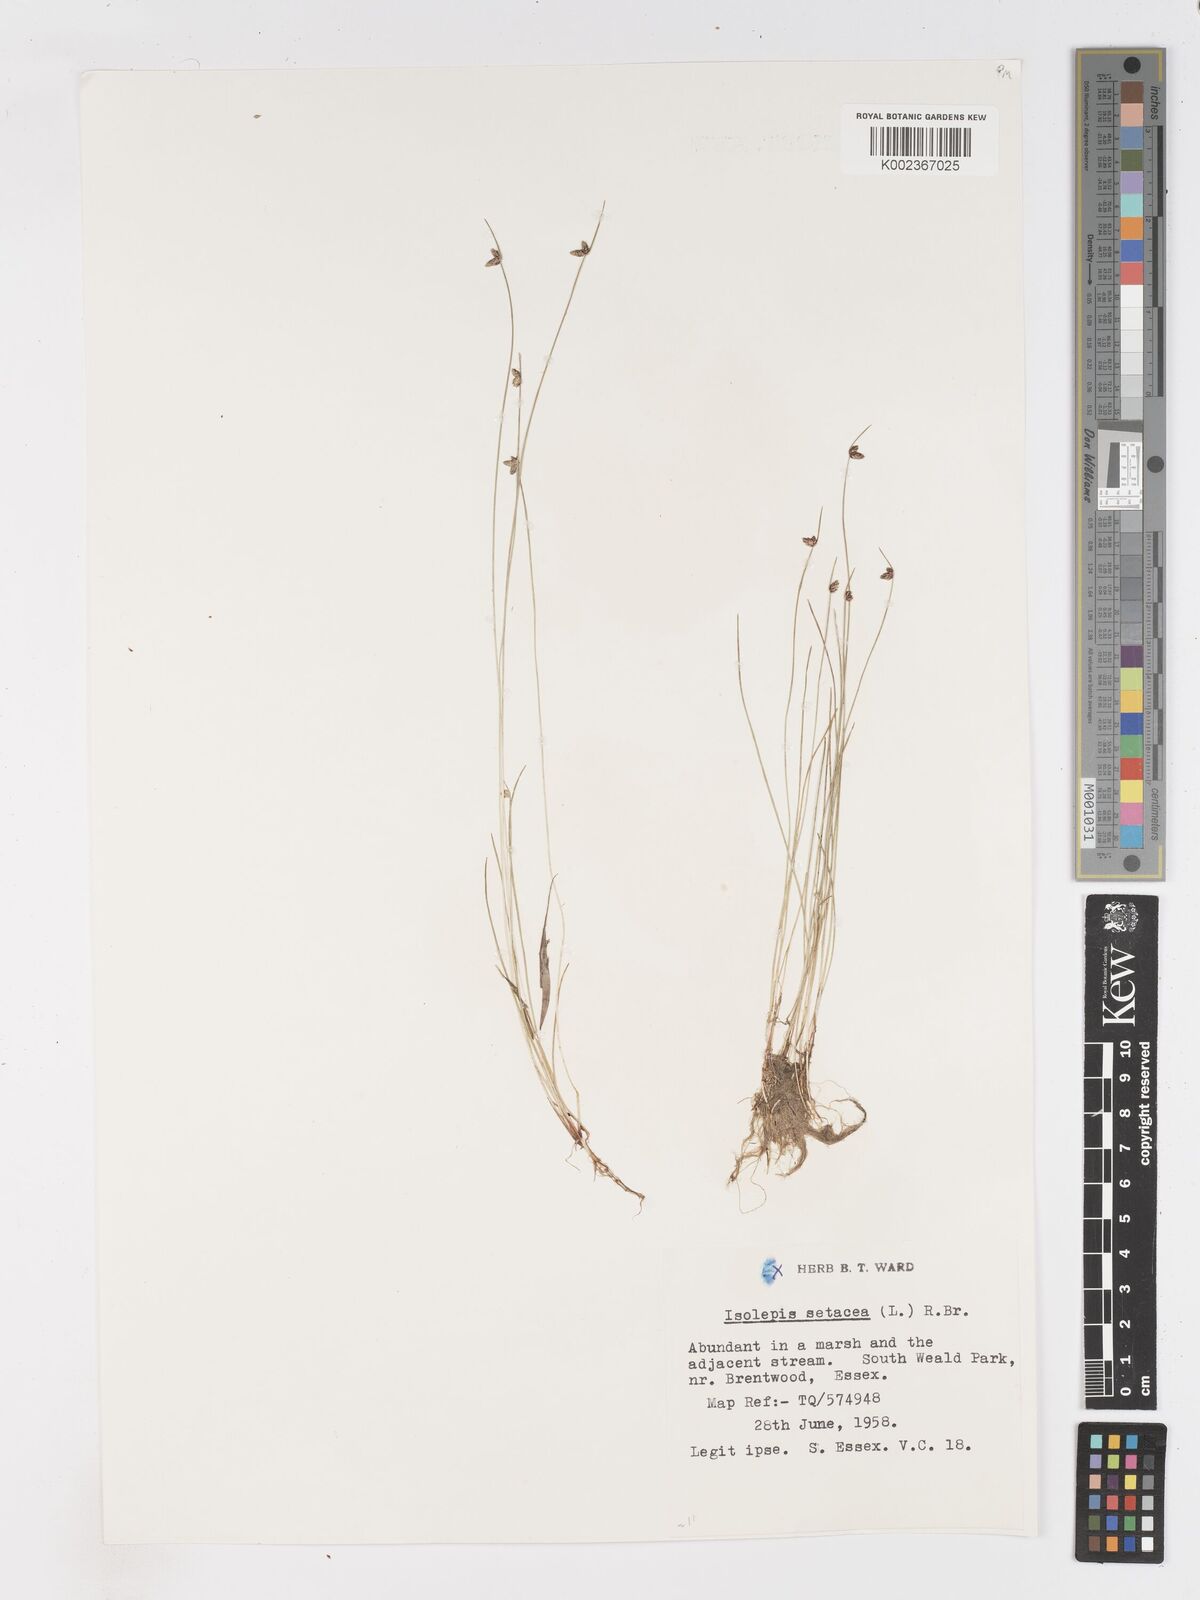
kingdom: Plantae
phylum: Tracheophyta
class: Liliopsida
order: Poales
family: Cyperaceae
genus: Isolepis
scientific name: Isolepis setacea
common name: Bristle club-rush
